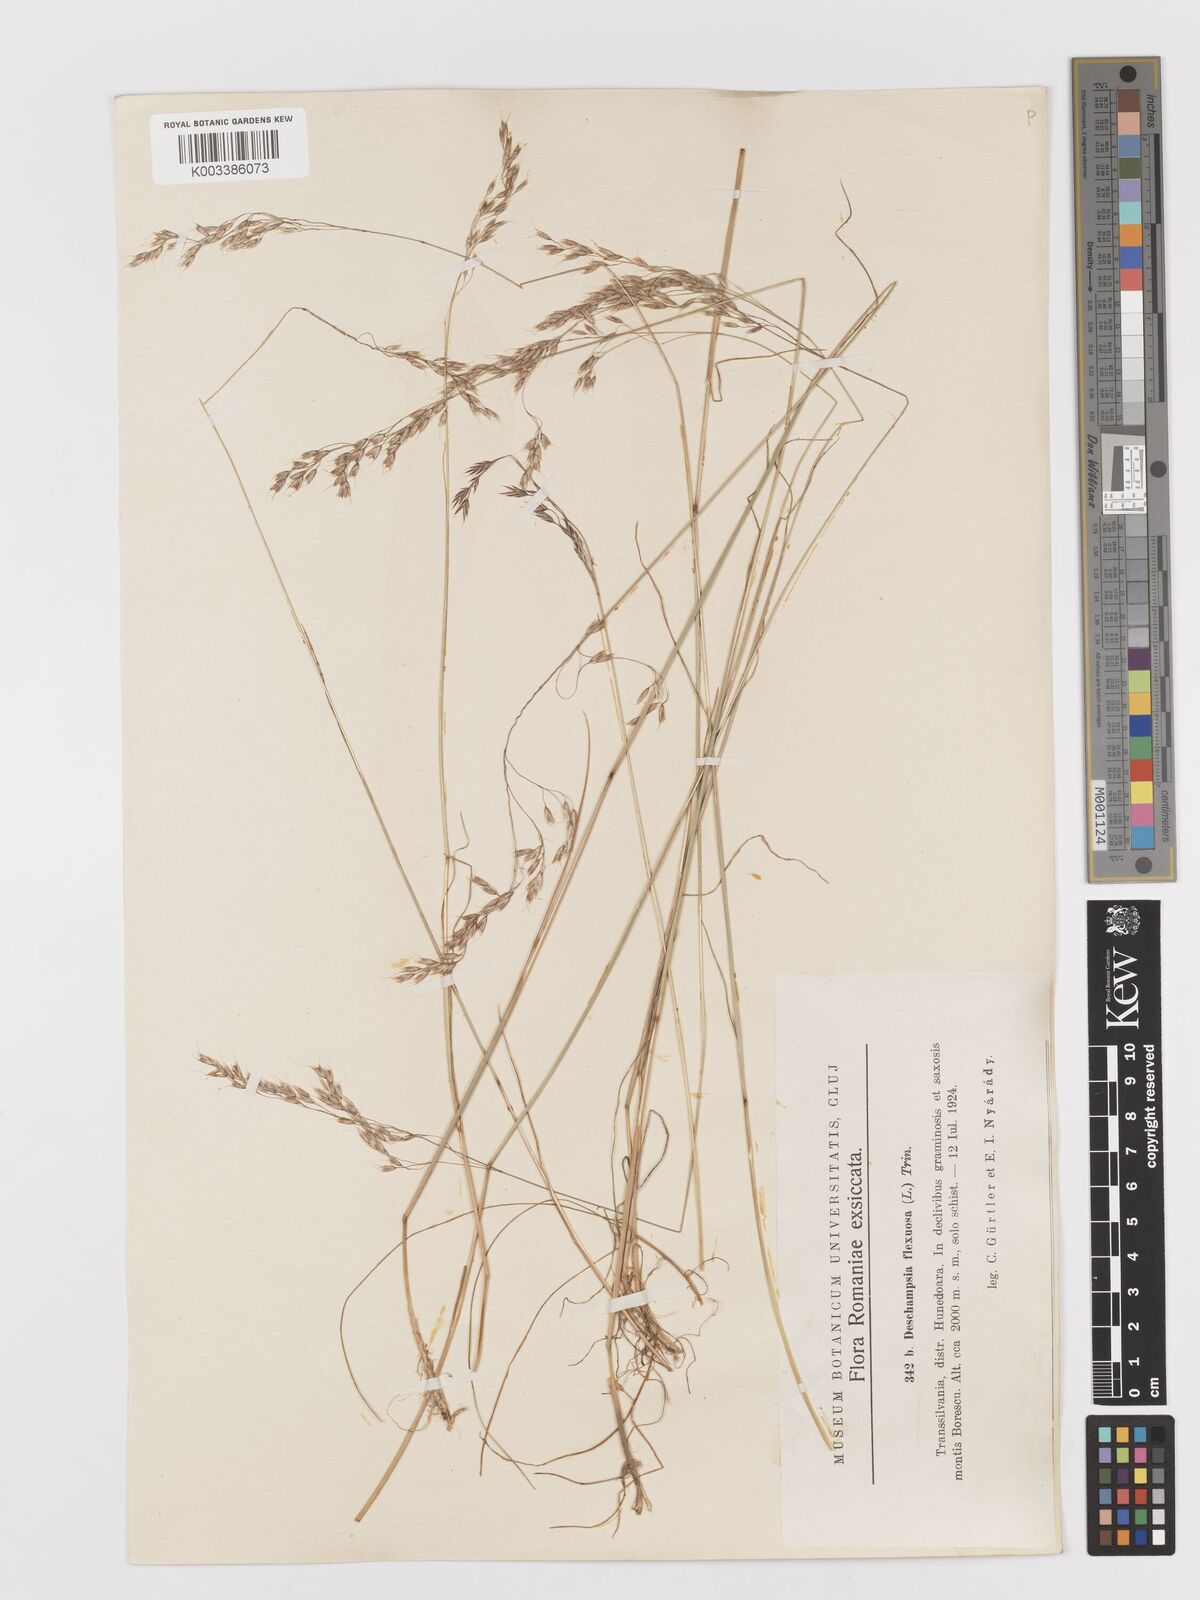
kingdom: Plantae
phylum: Tracheophyta
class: Liliopsida
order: Poales
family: Poaceae
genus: Avenella
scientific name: Avenella flexuosa
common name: Wavy hairgrass
